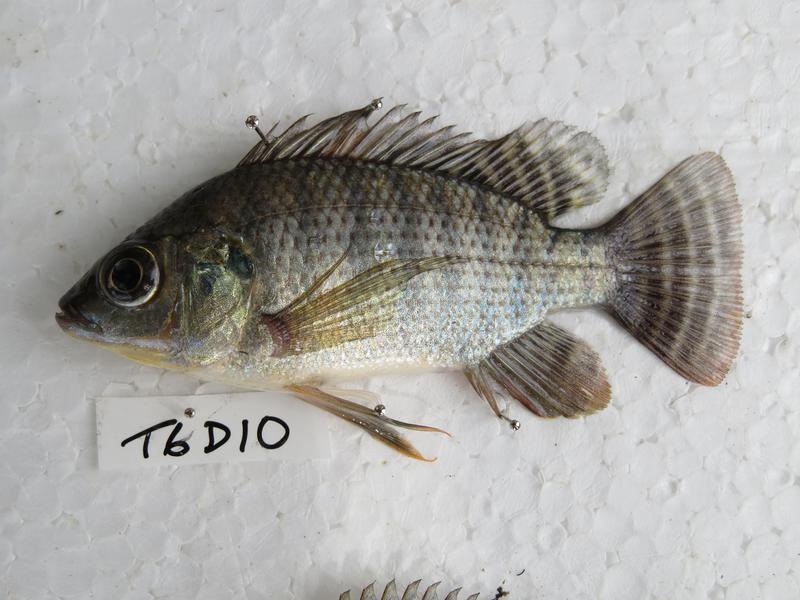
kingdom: Animalia
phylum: Chordata
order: Perciformes
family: Cichlidae
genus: Oreochromis
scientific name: Oreochromis niloticus
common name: Nile tilapia
